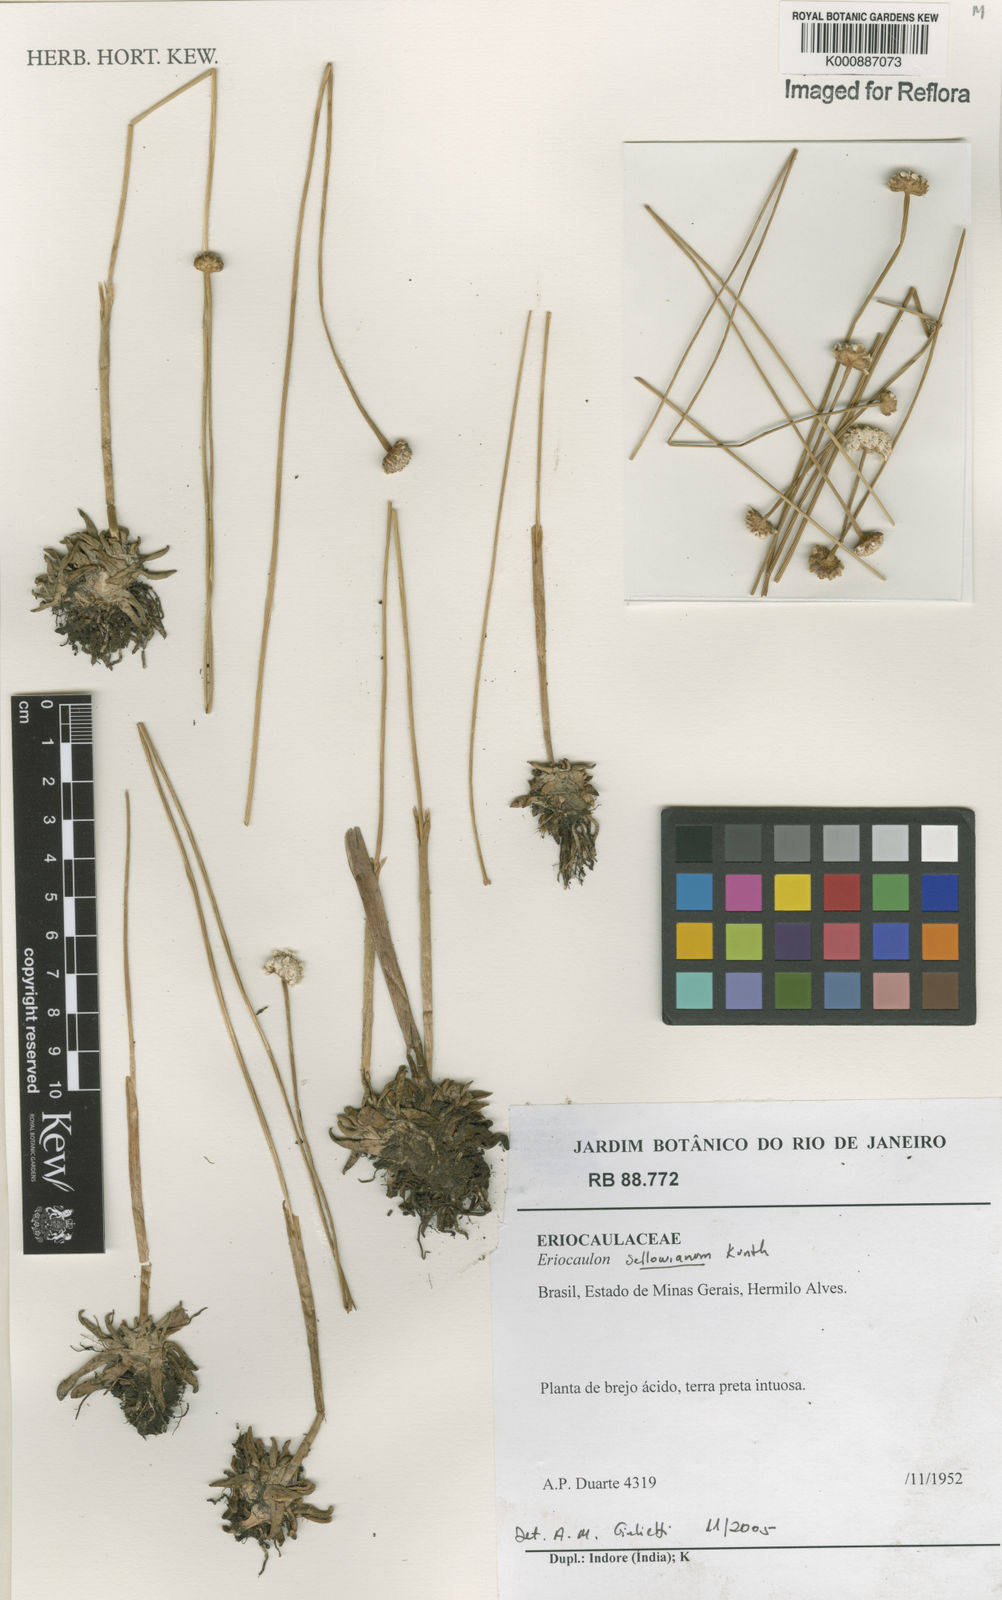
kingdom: Plantae
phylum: Tracheophyta
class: Liliopsida
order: Poales
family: Eriocaulaceae
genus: Eriocaulon
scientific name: Eriocaulon sellowianum
